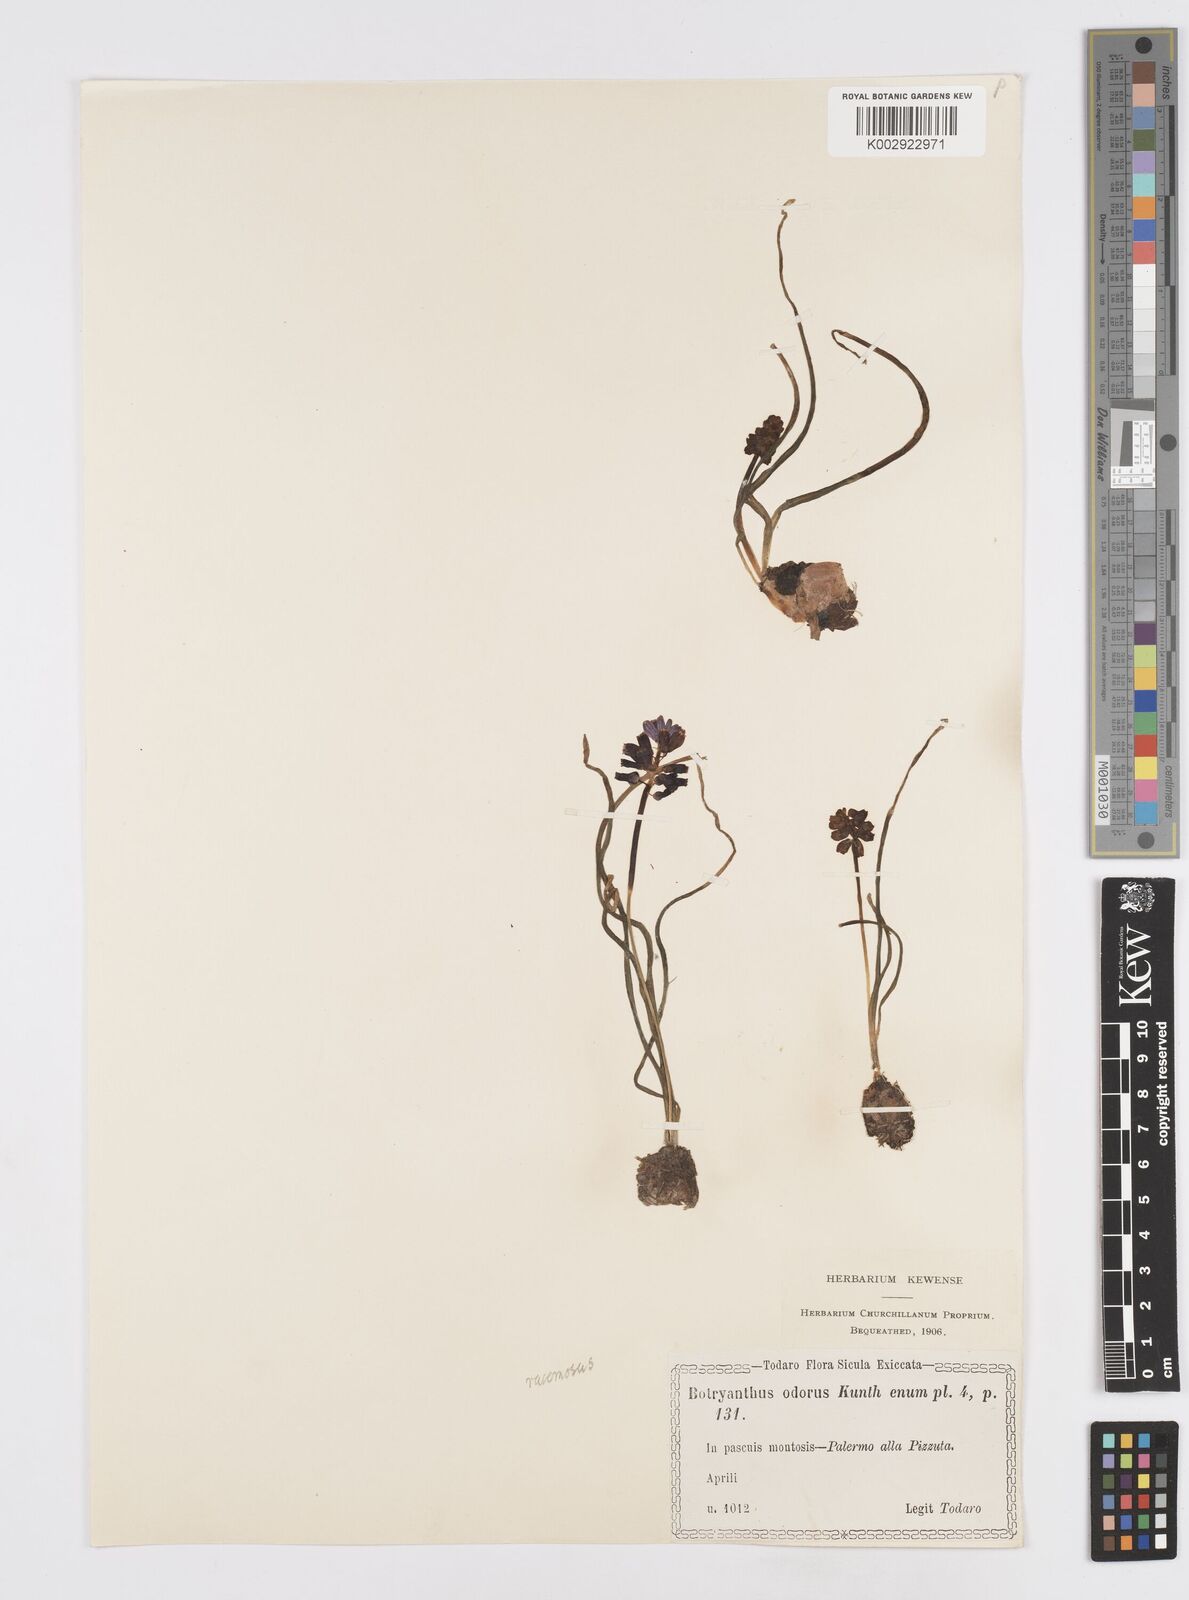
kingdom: Plantae
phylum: Tracheophyta
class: Liliopsida
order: Asparagales
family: Asparagaceae
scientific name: Asparagaceae
